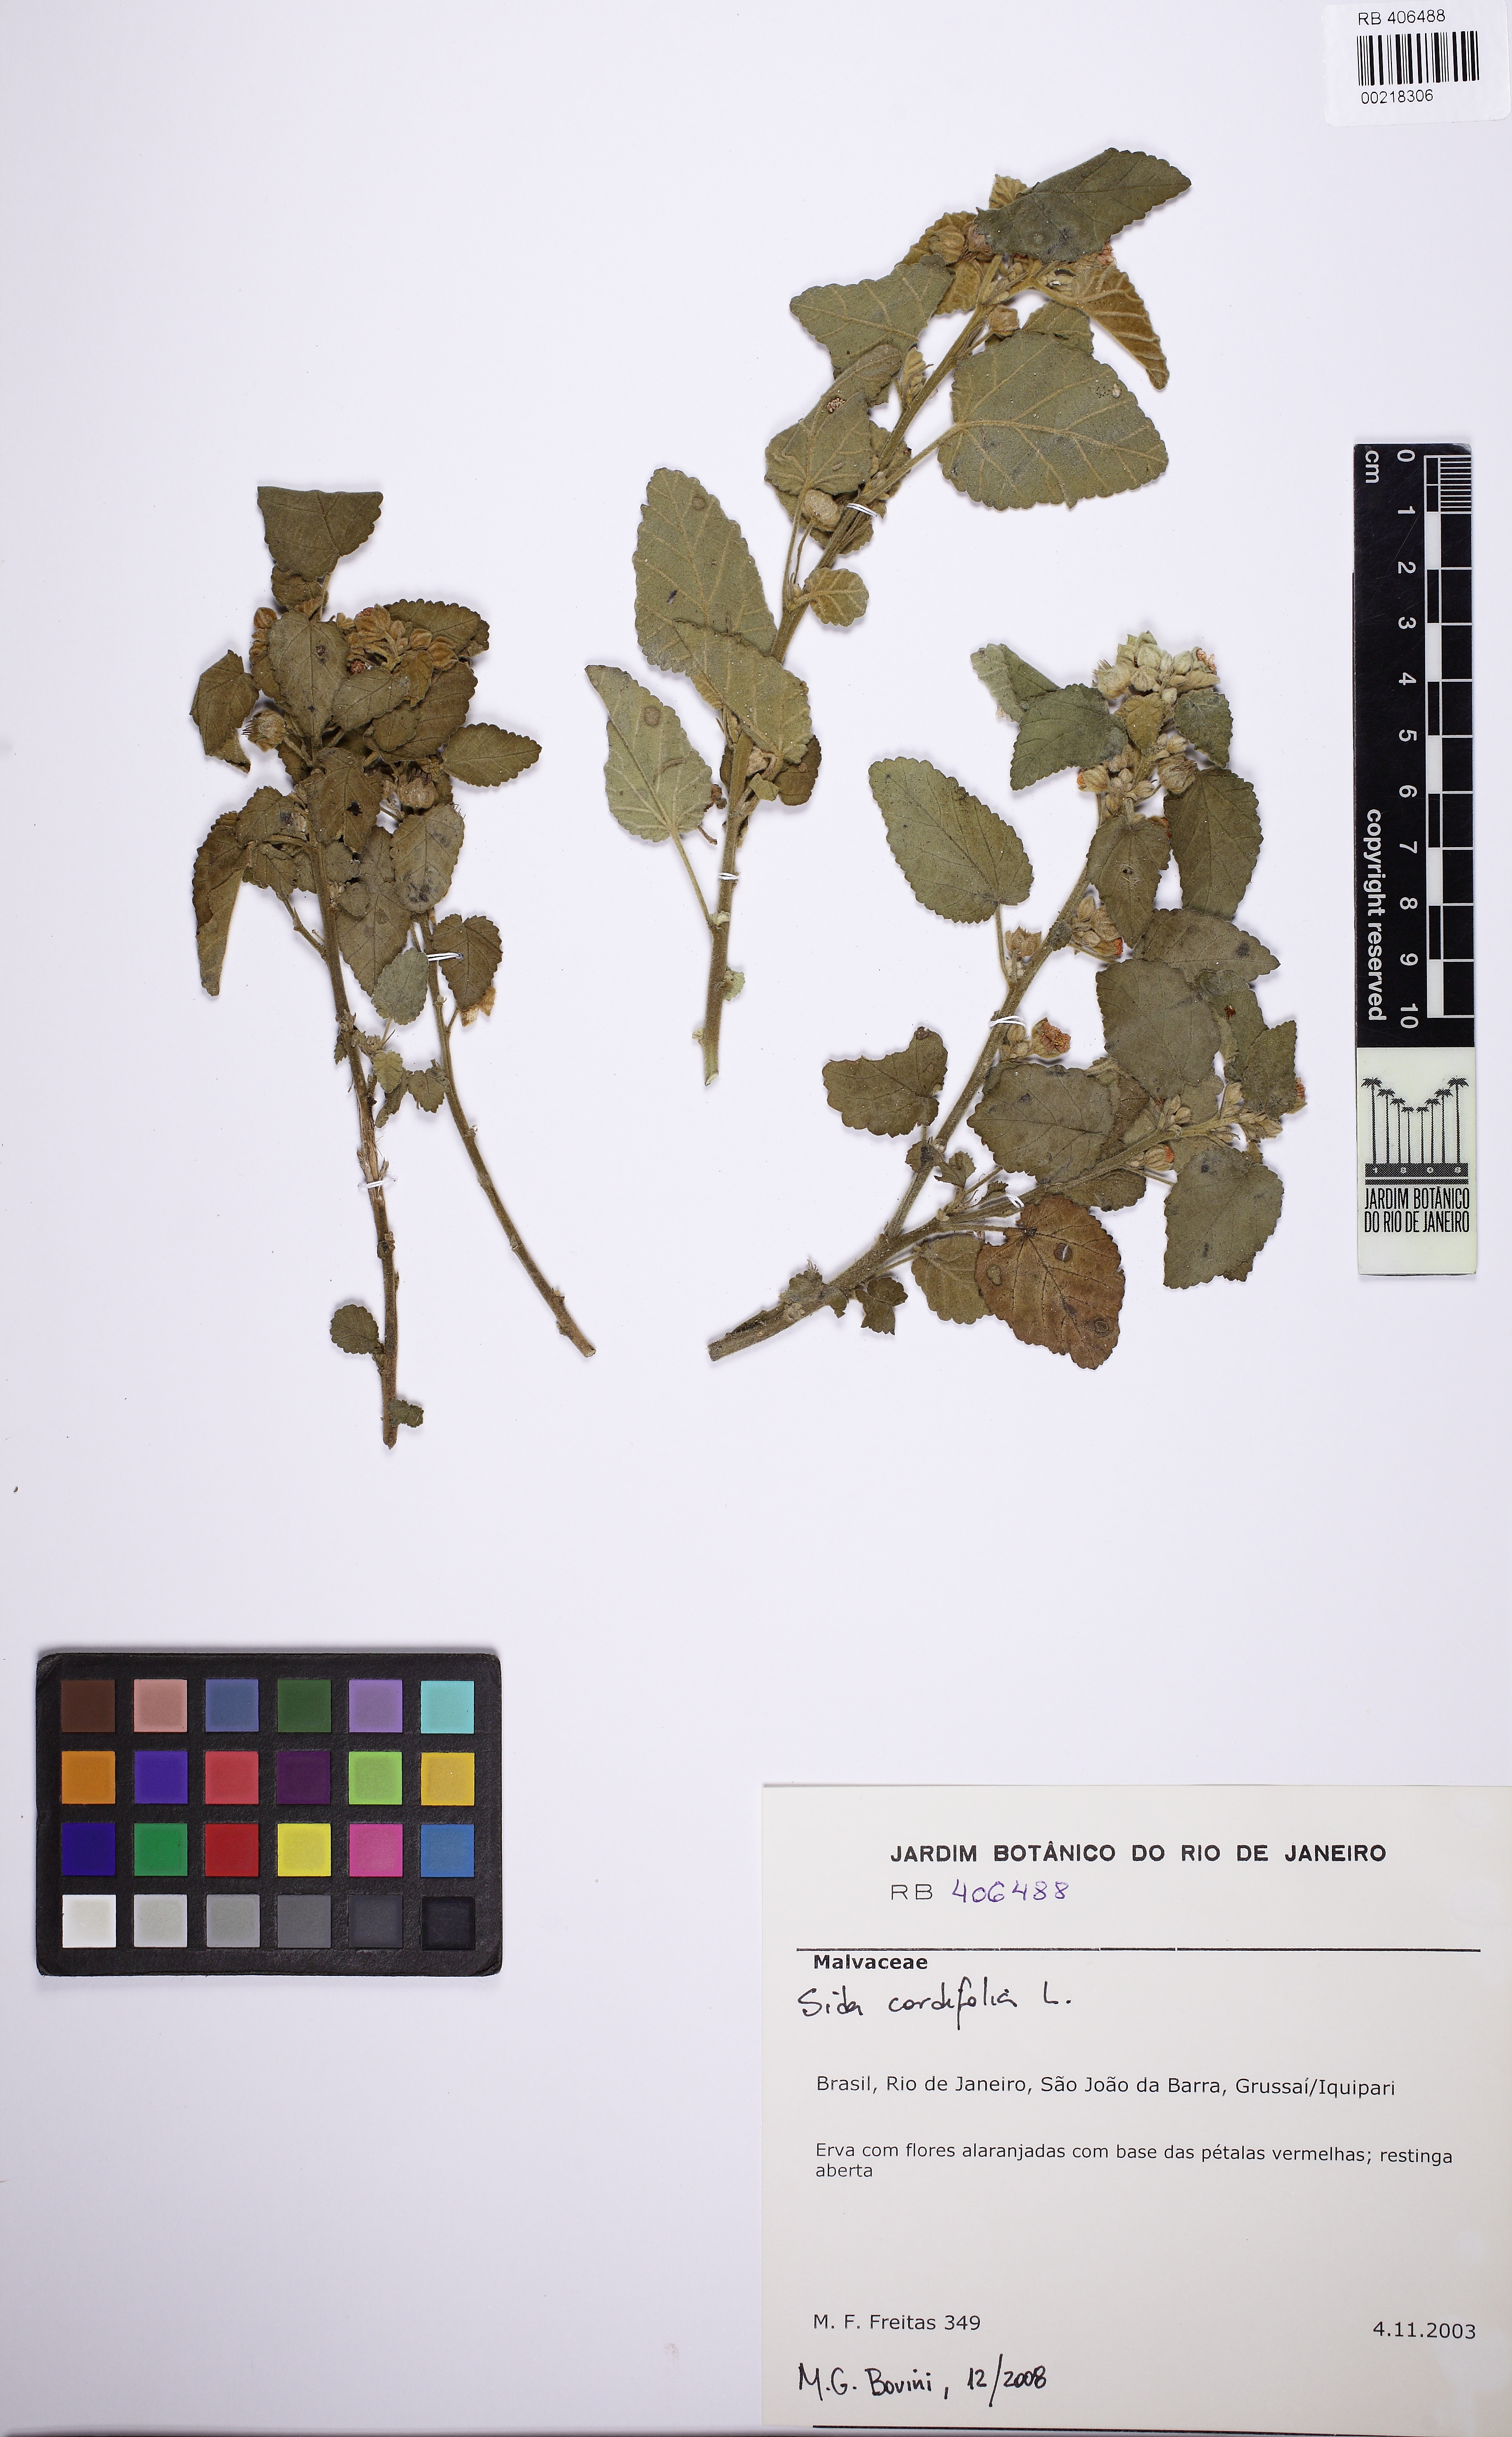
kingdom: Plantae
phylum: Tracheophyta
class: Magnoliopsida
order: Malvales
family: Malvaceae
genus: Sida
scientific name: Sida cordifolia
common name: Ilima
